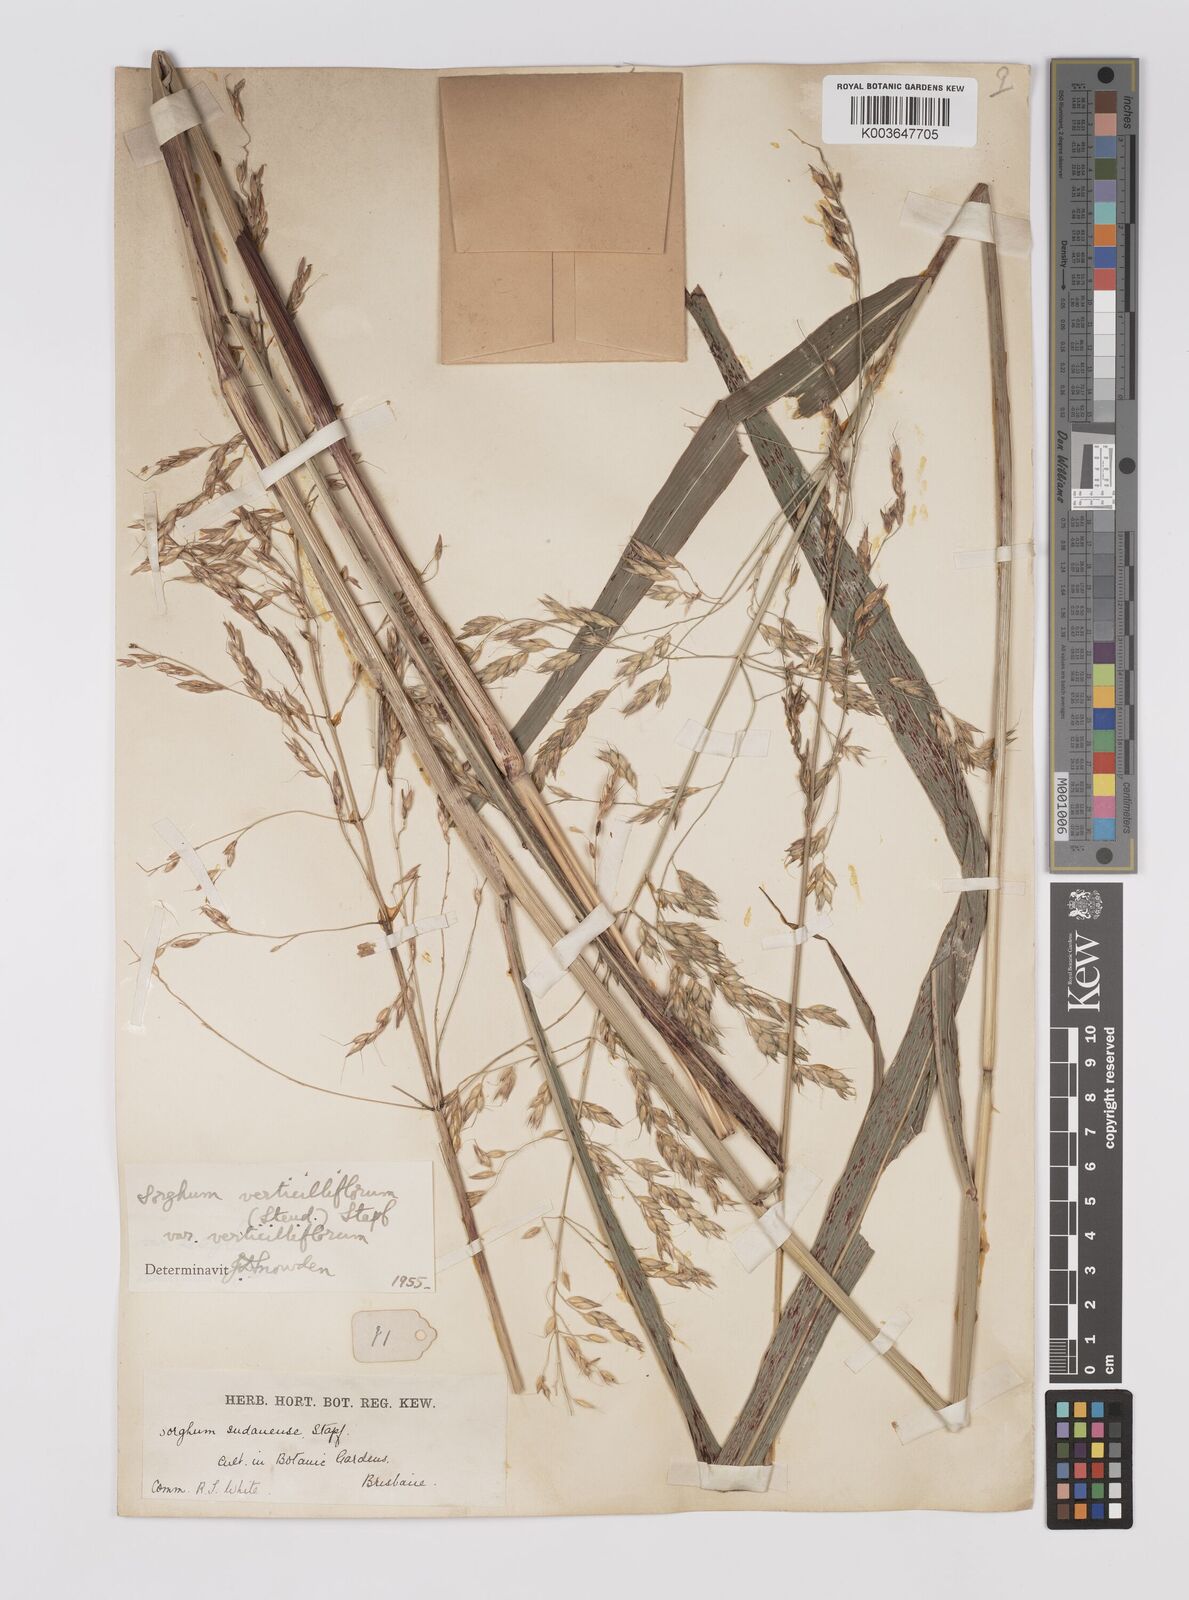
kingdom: Plantae
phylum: Tracheophyta
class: Liliopsida
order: Poales
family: Poaceae
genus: Sorghum
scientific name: Sorghum arundinaceum
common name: Sorghum
